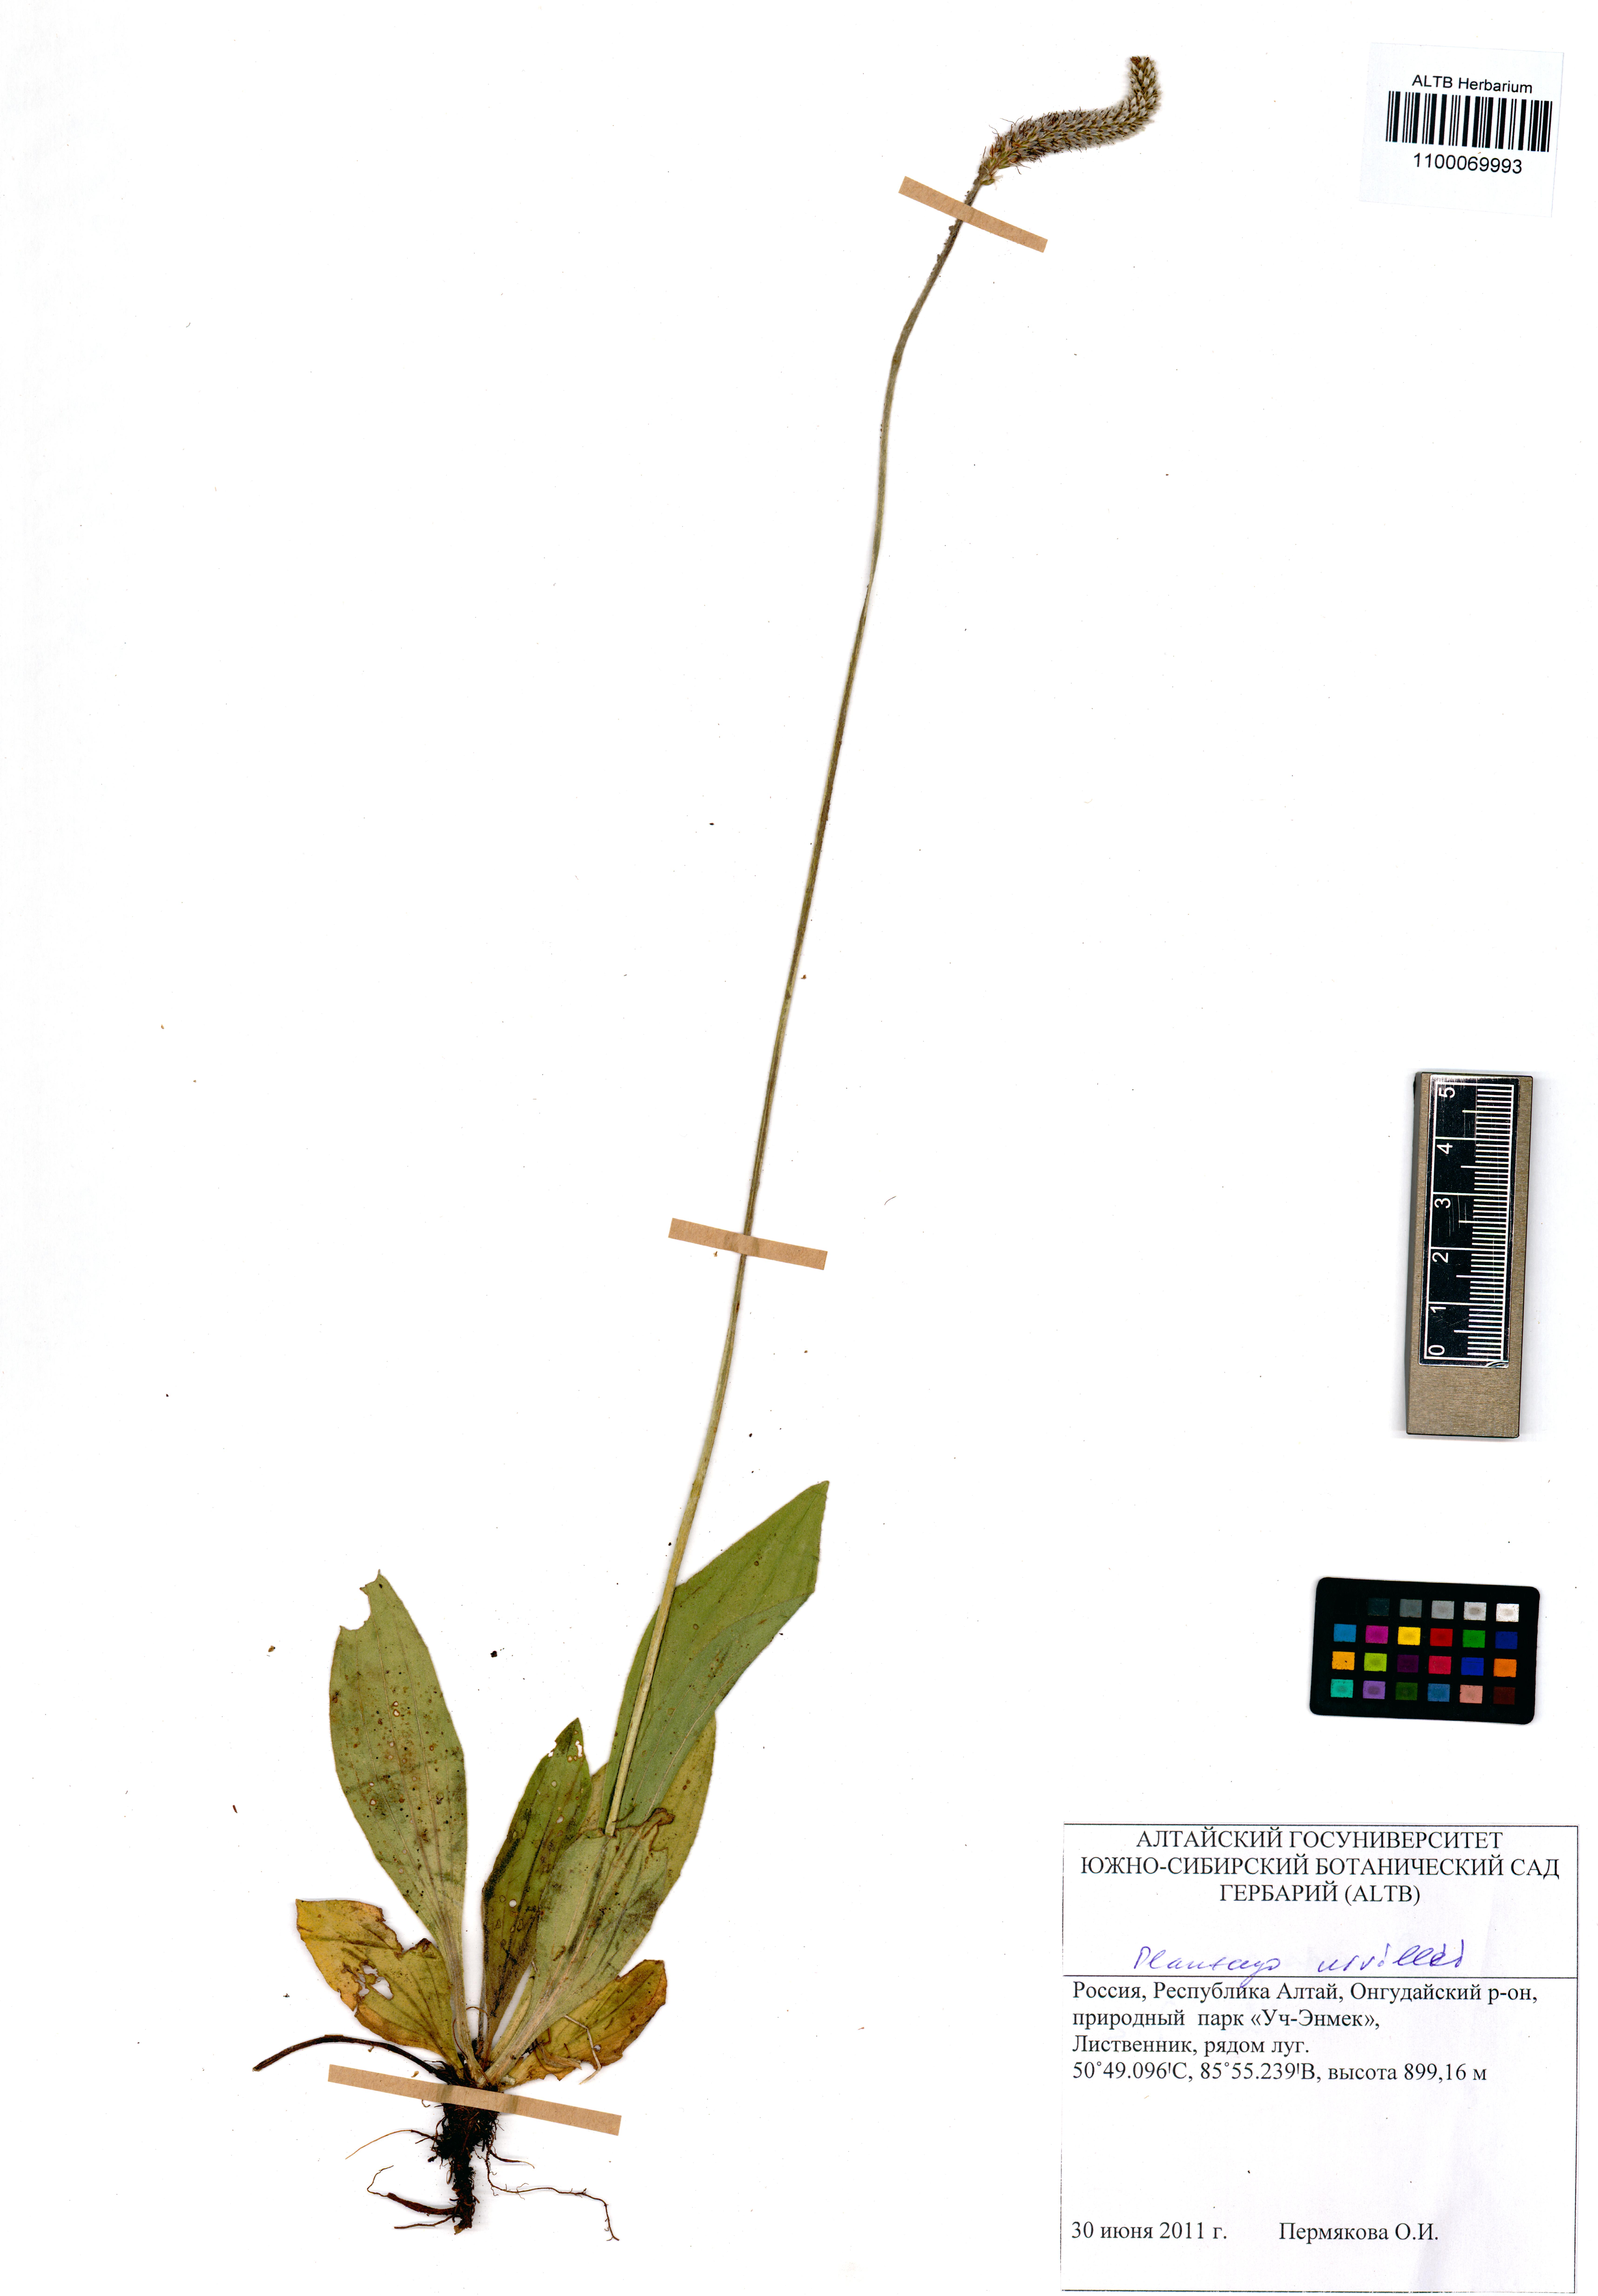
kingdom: Plantae
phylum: Tracheophyta
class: Magnoliopsida
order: Lamiales
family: Plantaginaceae
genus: Plantago
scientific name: Plantago urvillei
